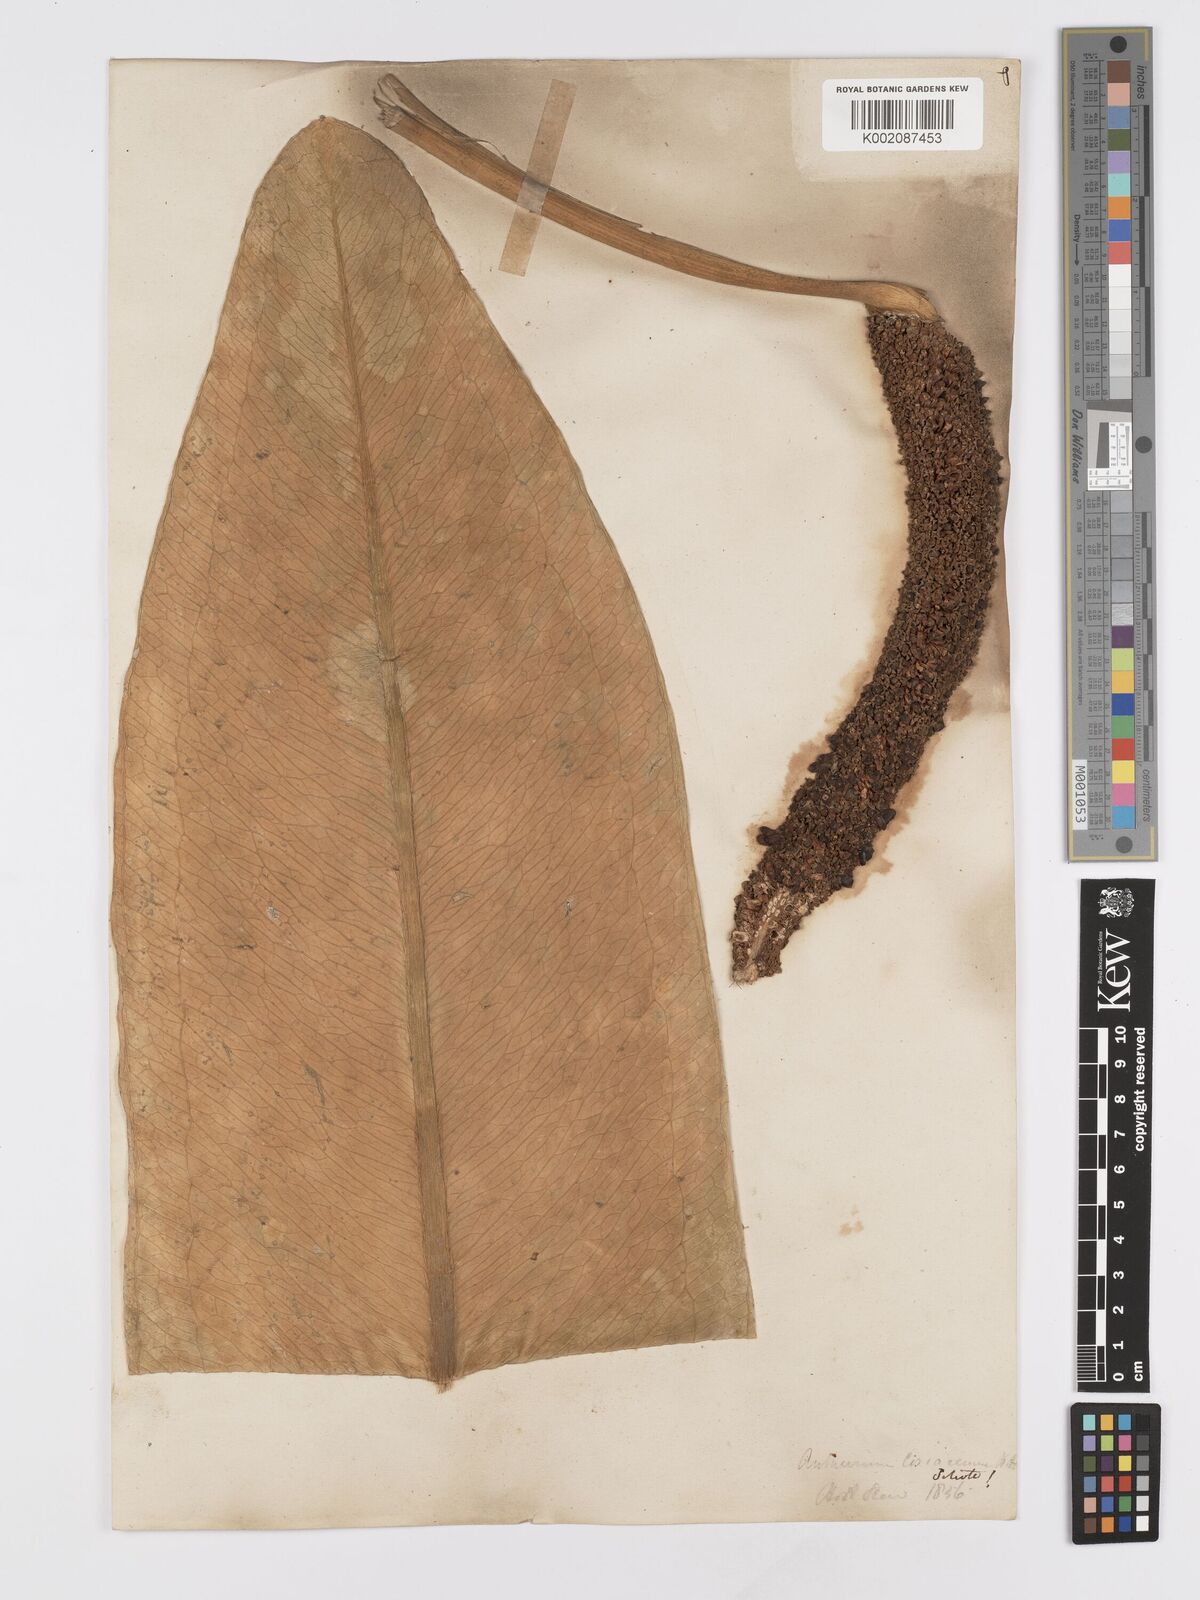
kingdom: Plantae
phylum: Tracheophyta
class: Liliopsida
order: Alismatales
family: Araceae
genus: Anthurium
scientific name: Anthurium
